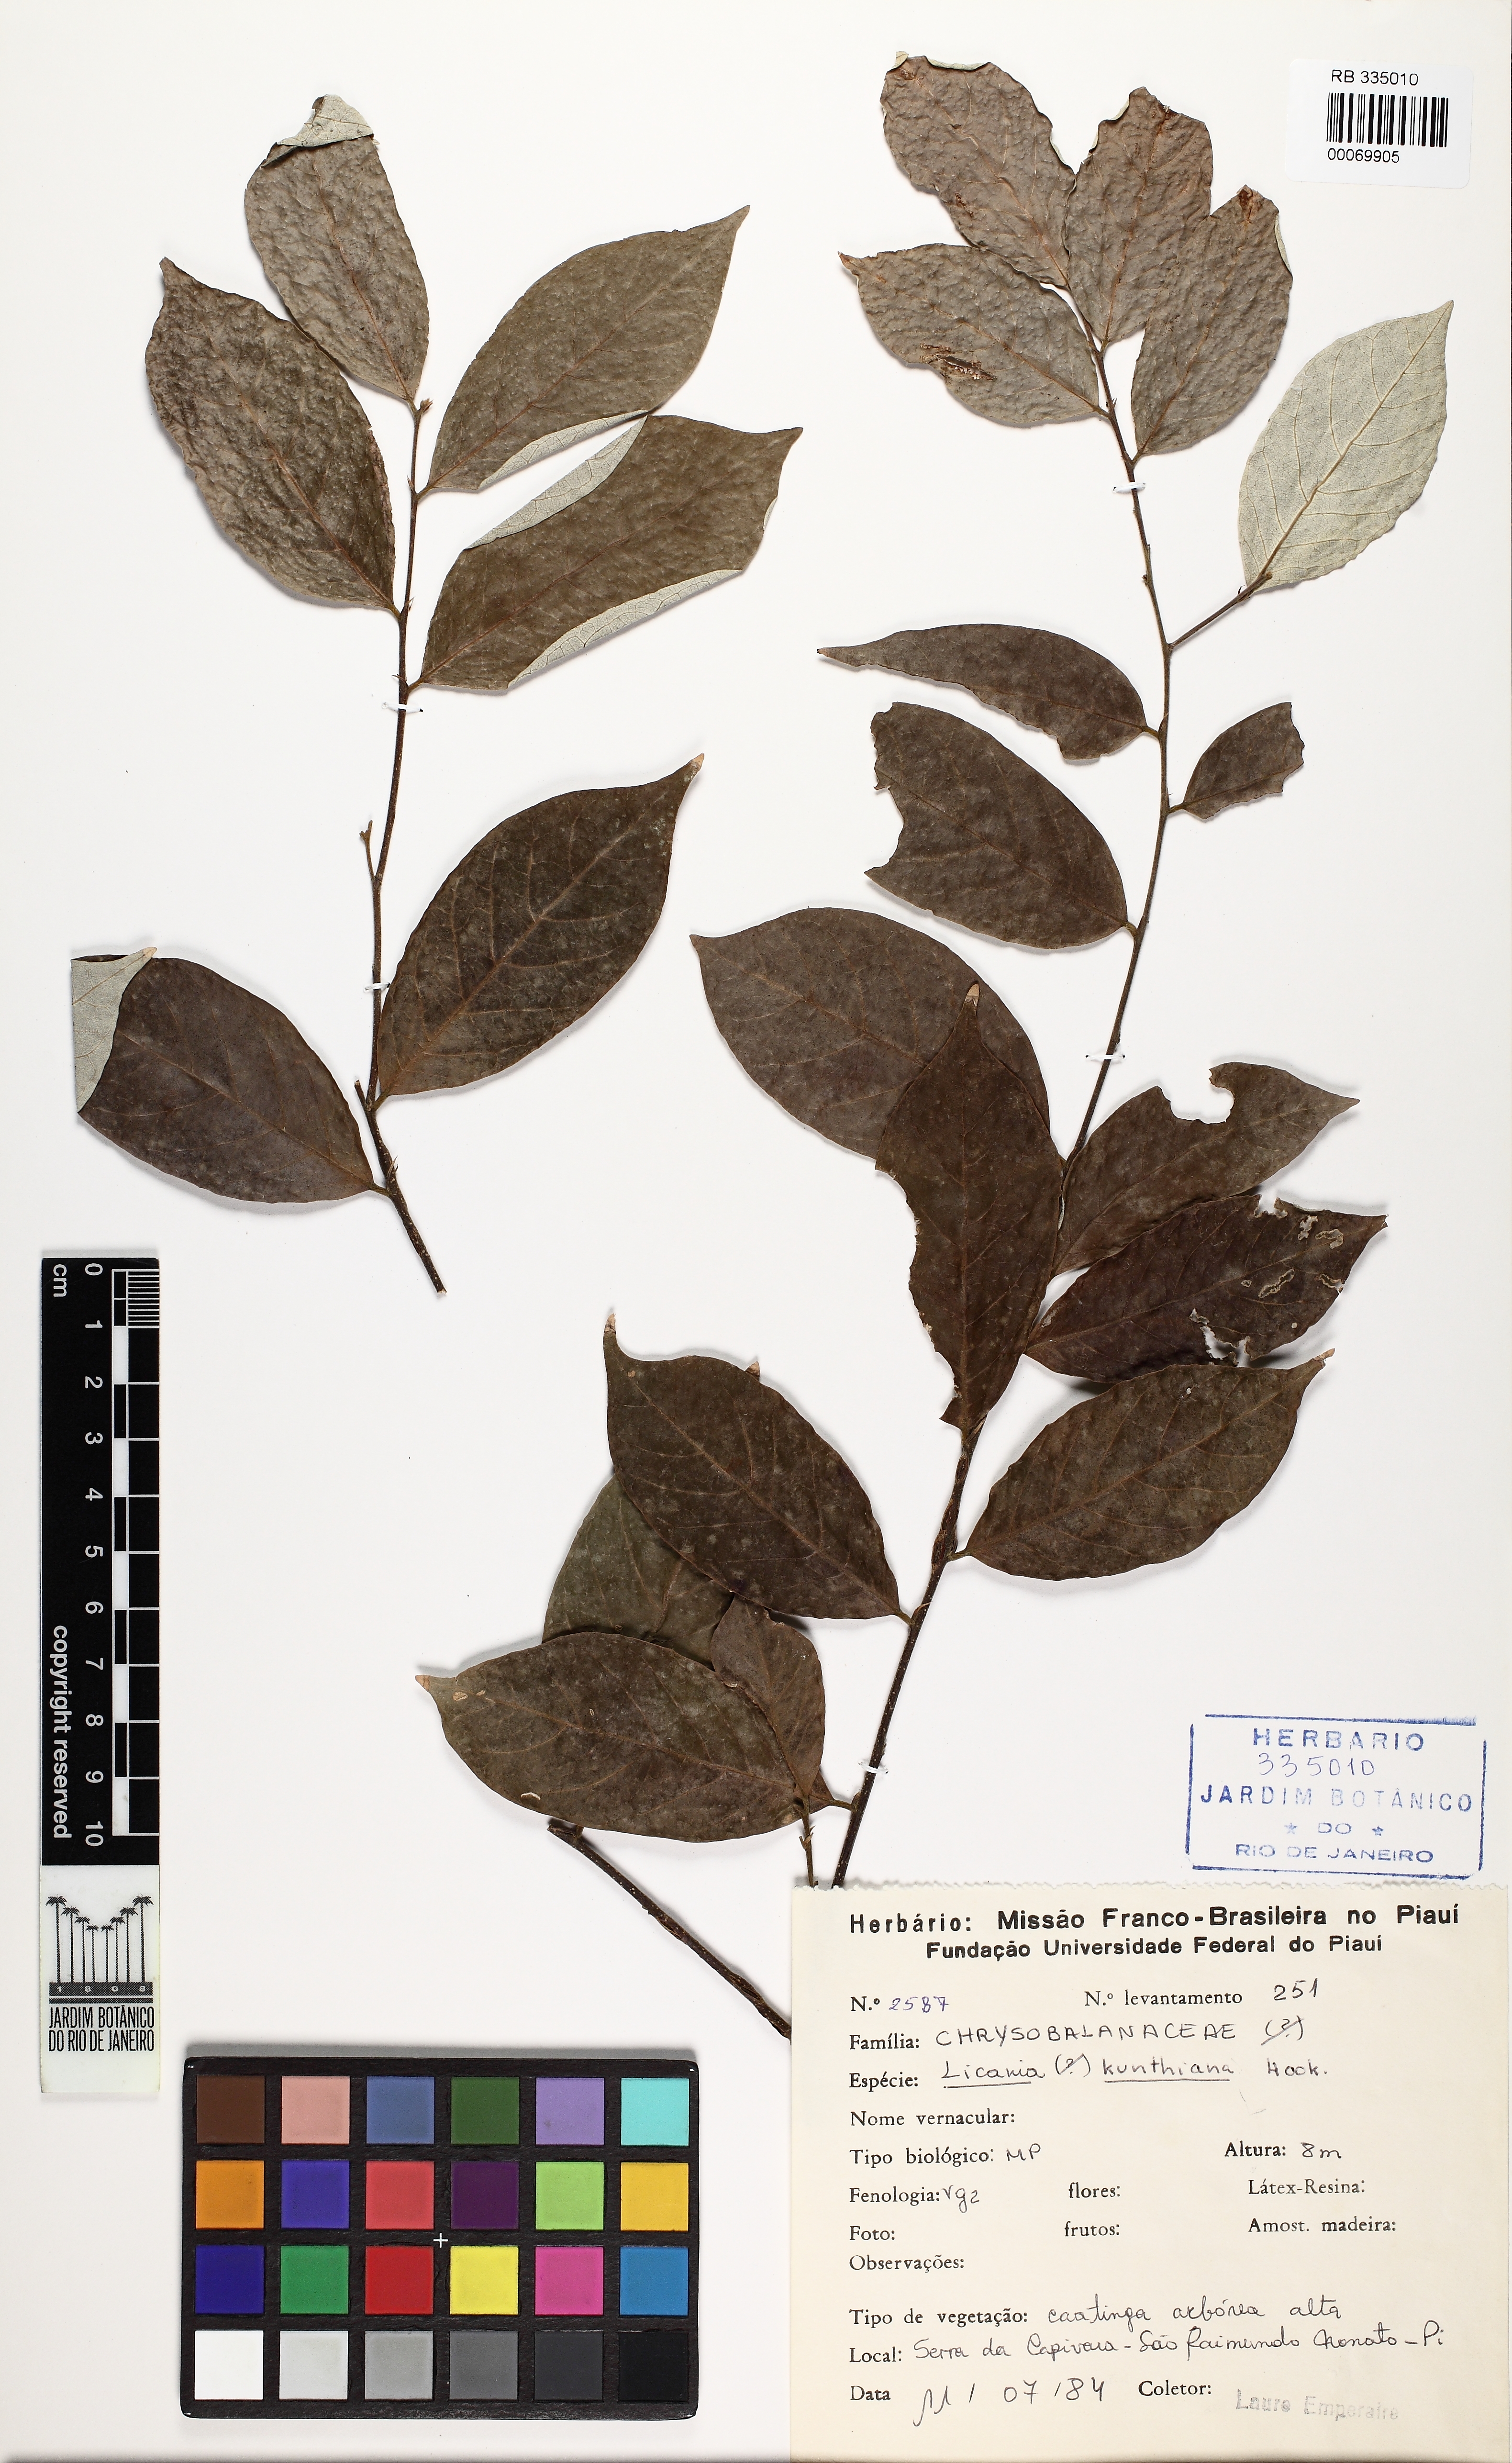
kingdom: Plantae
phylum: Tracheophyta
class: Magnoliopsida
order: Malpighiales
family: Chrysobalanaceae
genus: Licania
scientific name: Licania kunthiana
